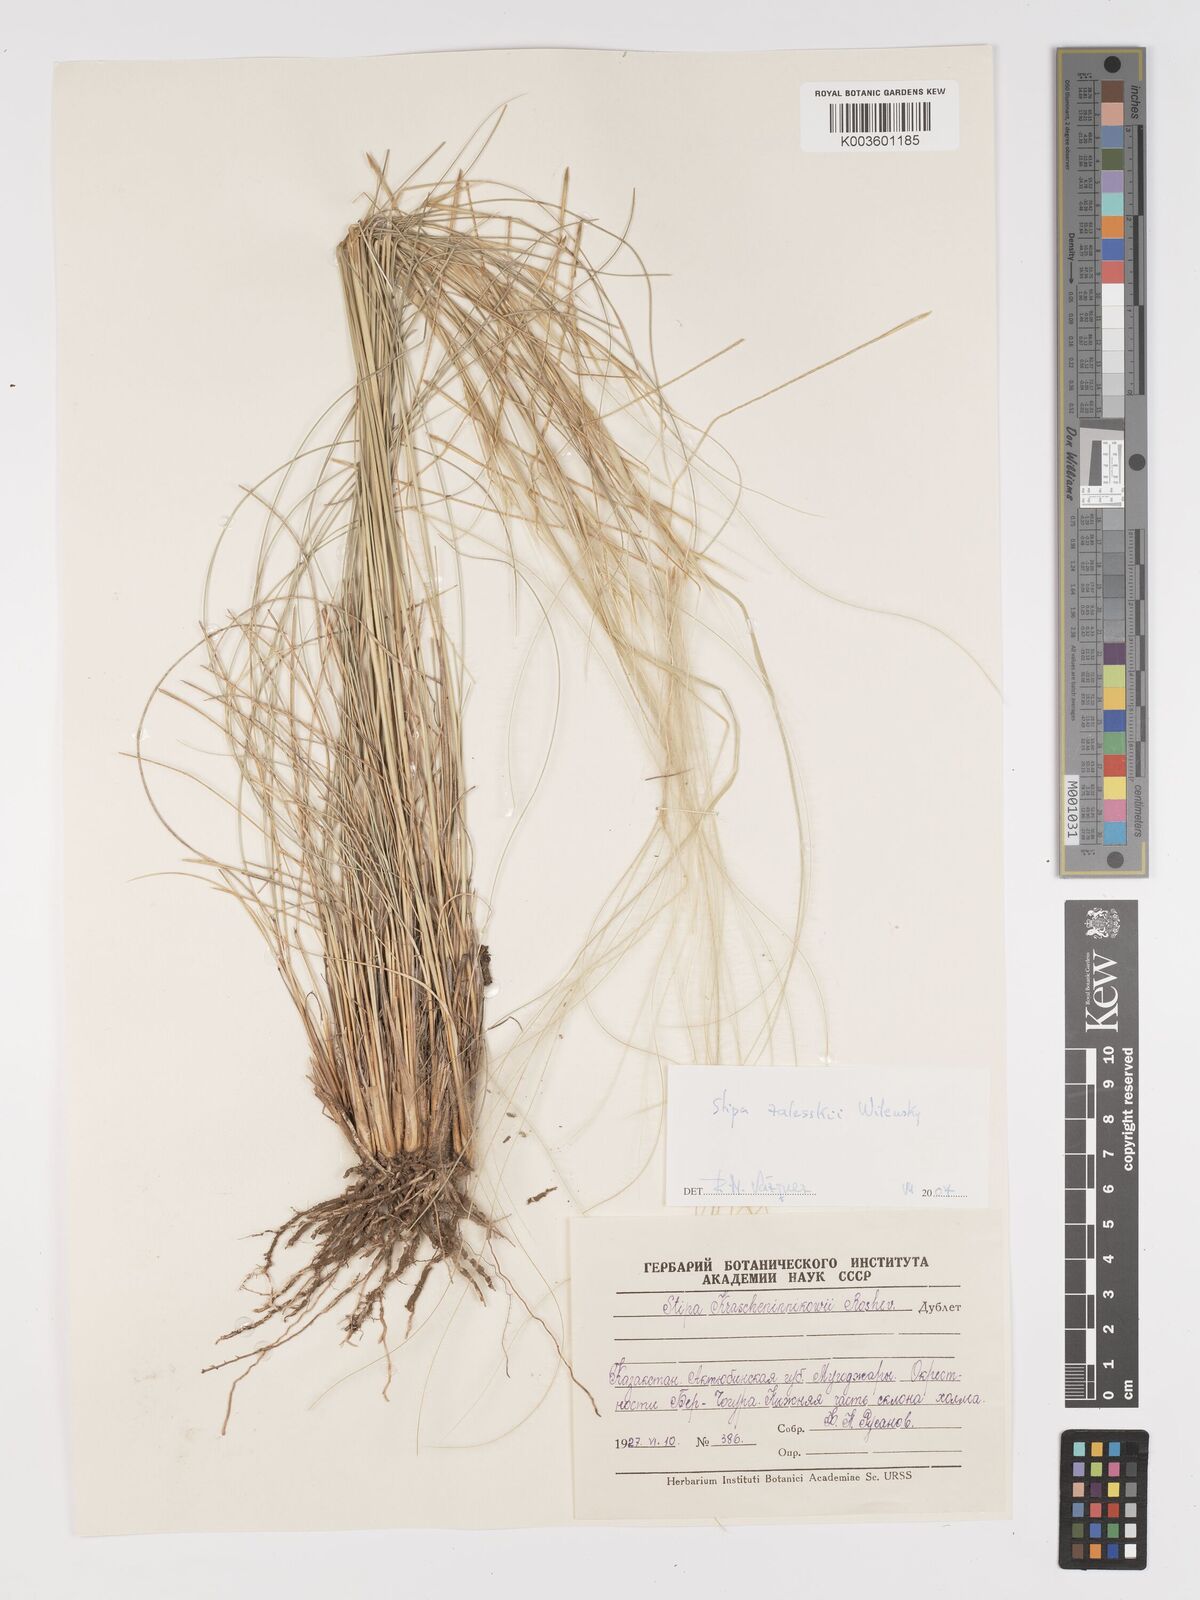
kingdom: Plantae
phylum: Tracheophyta
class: Liliopsida
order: Poales
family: Poaceae
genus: Stipa
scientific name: Stipa
